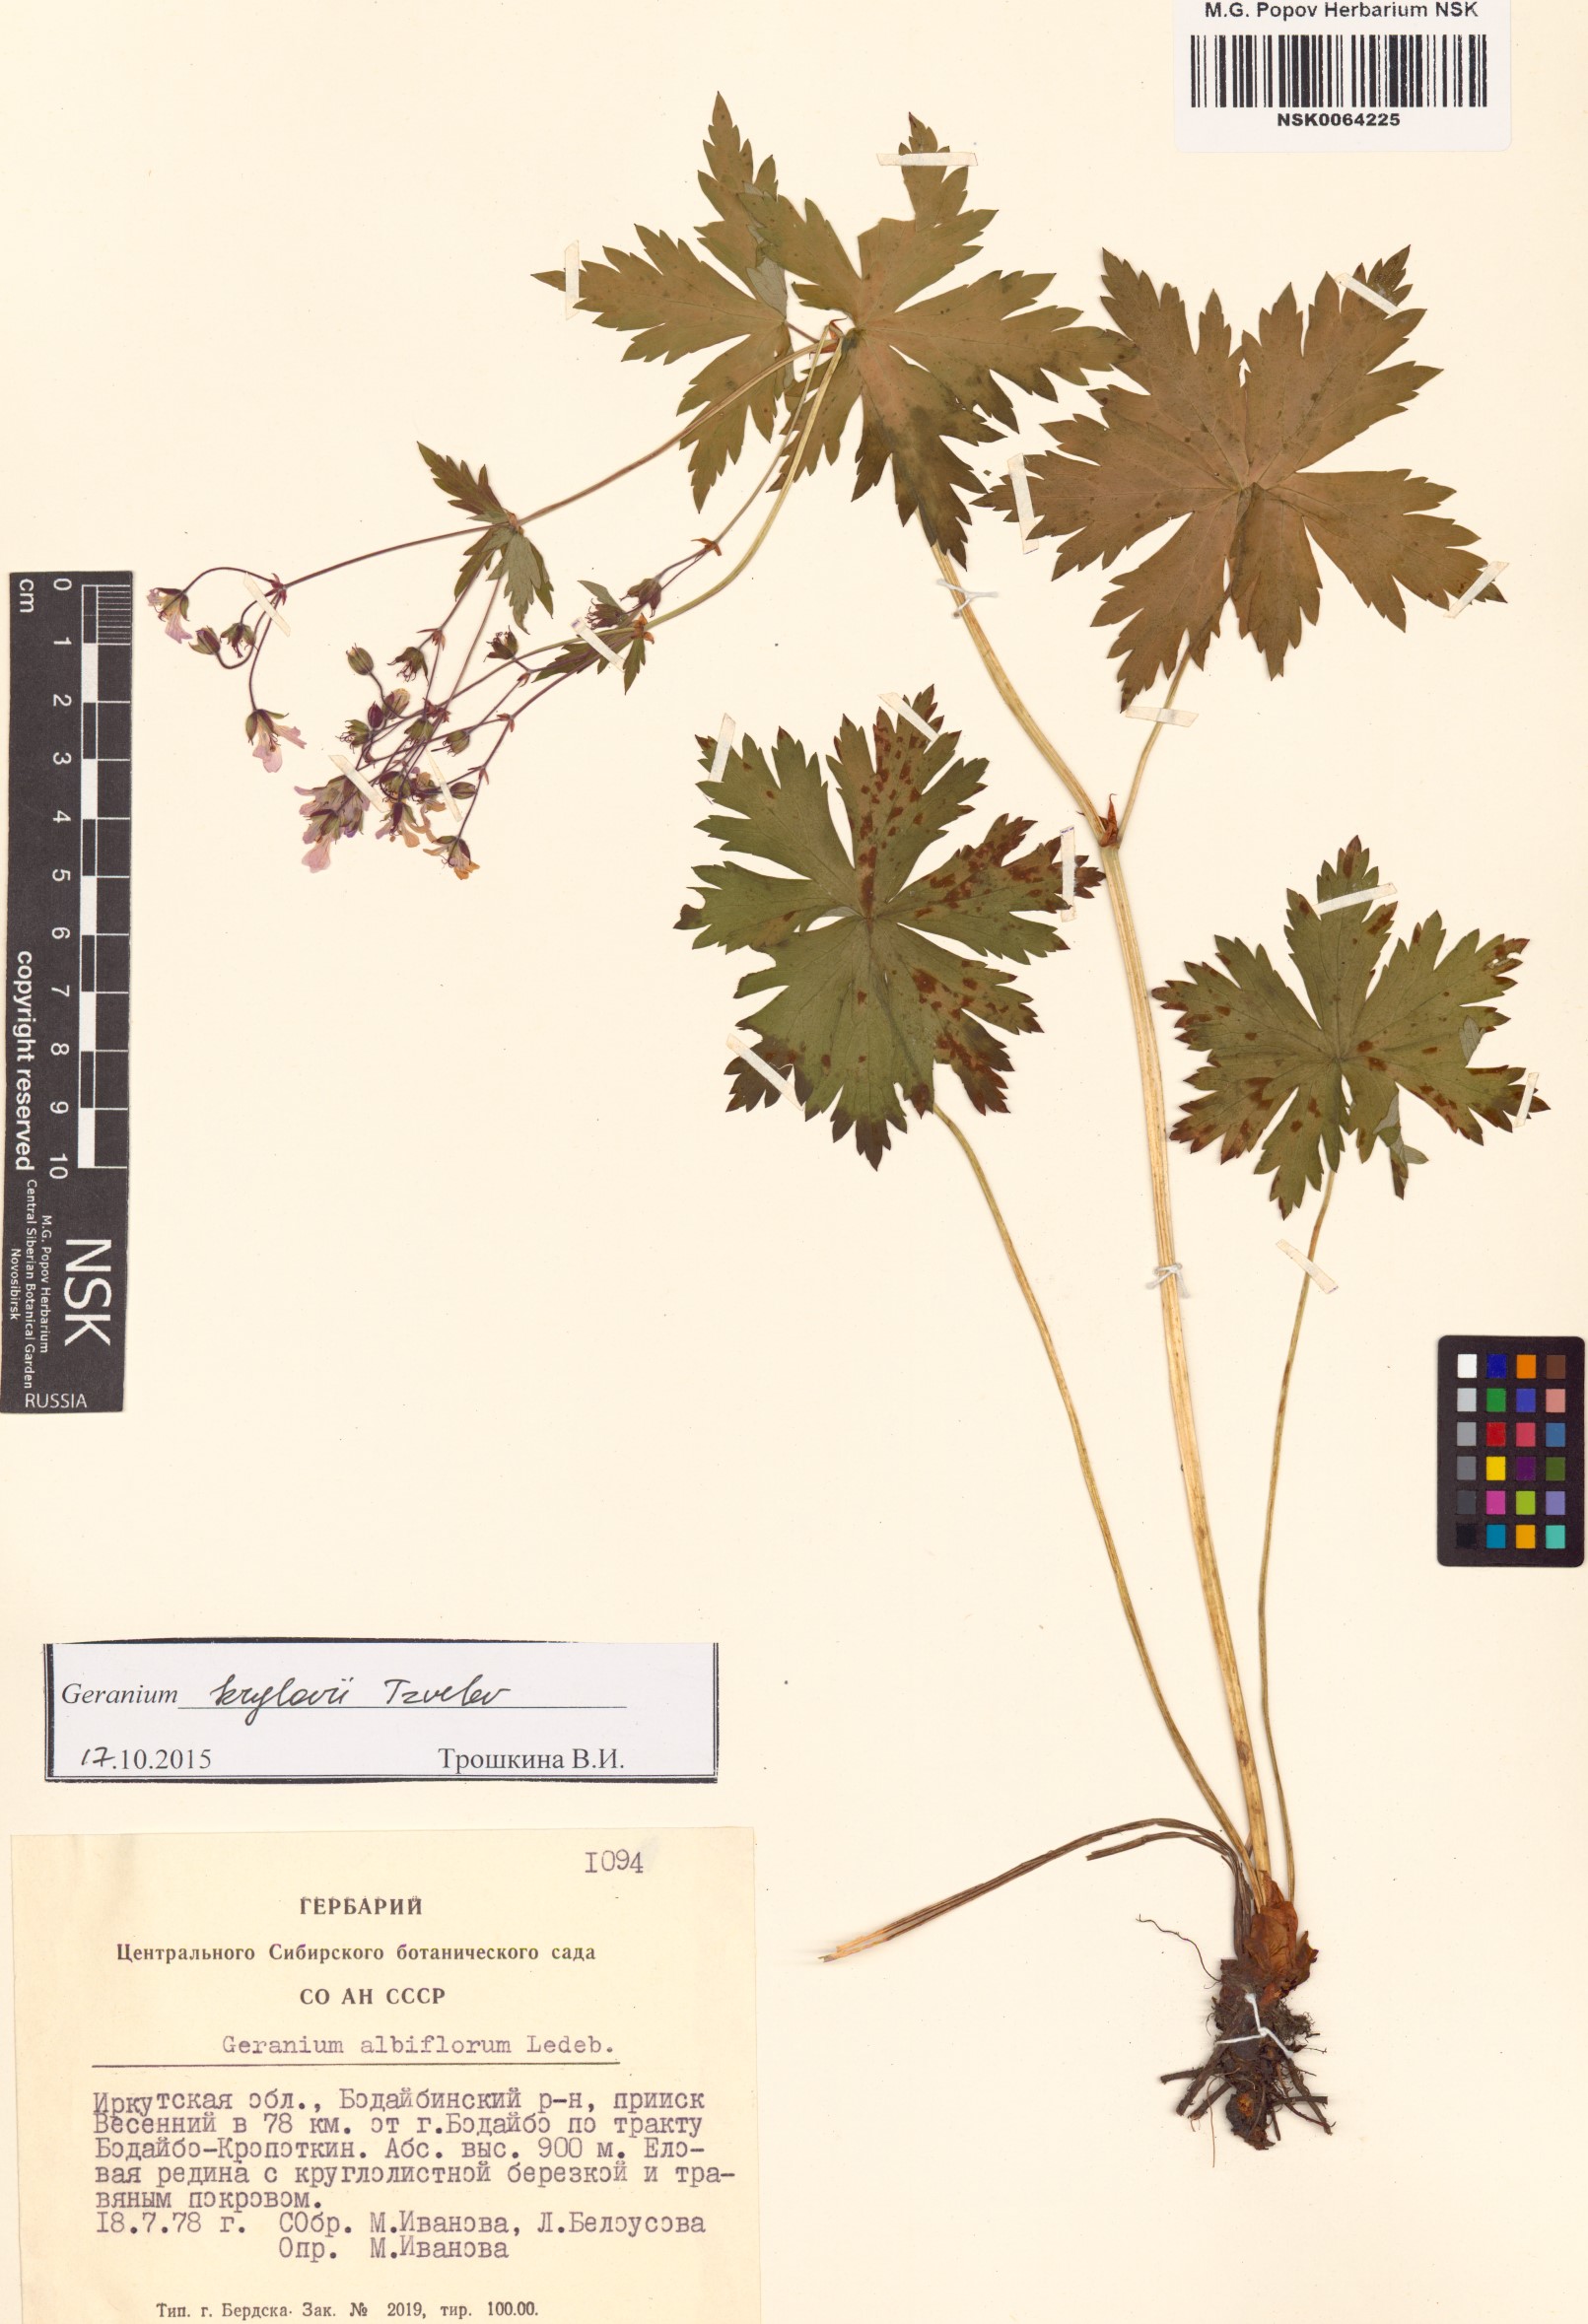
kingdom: Plantae
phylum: Tracheophyta
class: Magnoliopsida
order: Geraniales
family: Geraniaceae
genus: Geranium
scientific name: Geranium sylvaticum
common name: Wood crane's-bill
